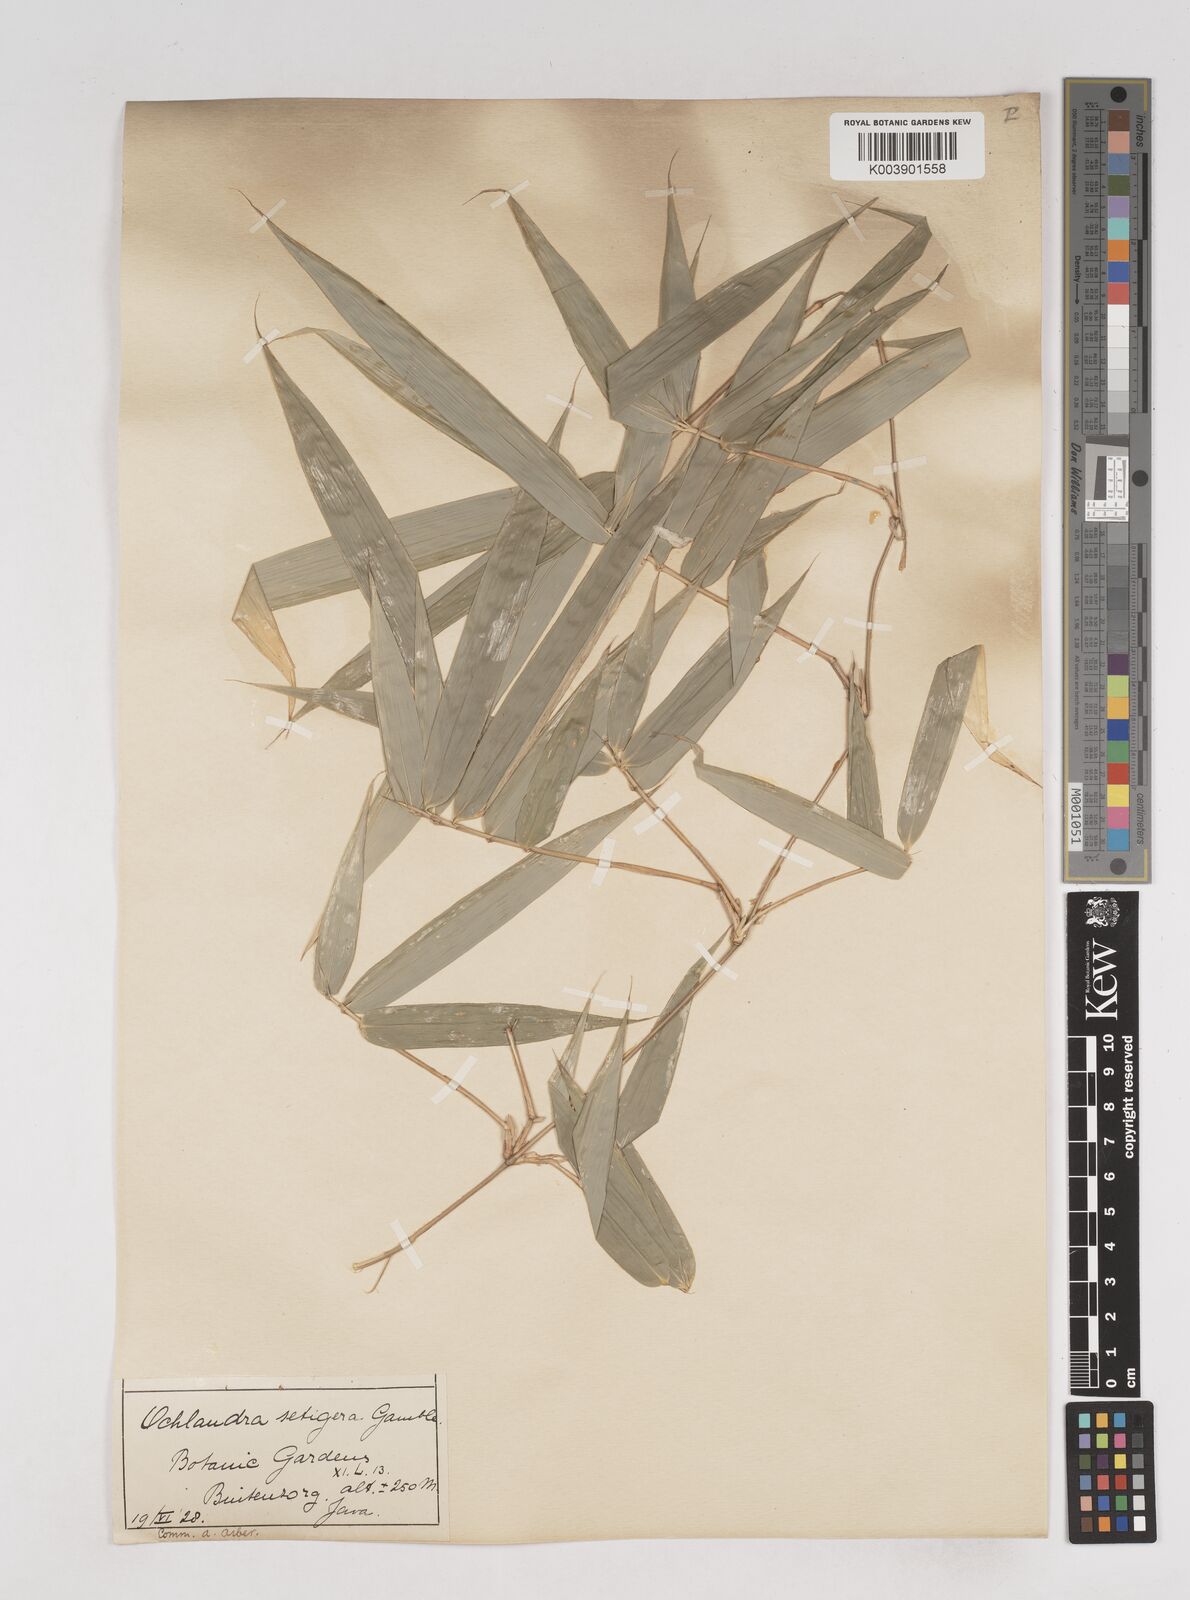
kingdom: Plantae
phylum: Tracheophyta
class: Liliopsida
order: Poales
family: Poaceae
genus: Ochlandra
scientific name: Ochlandra setigera
